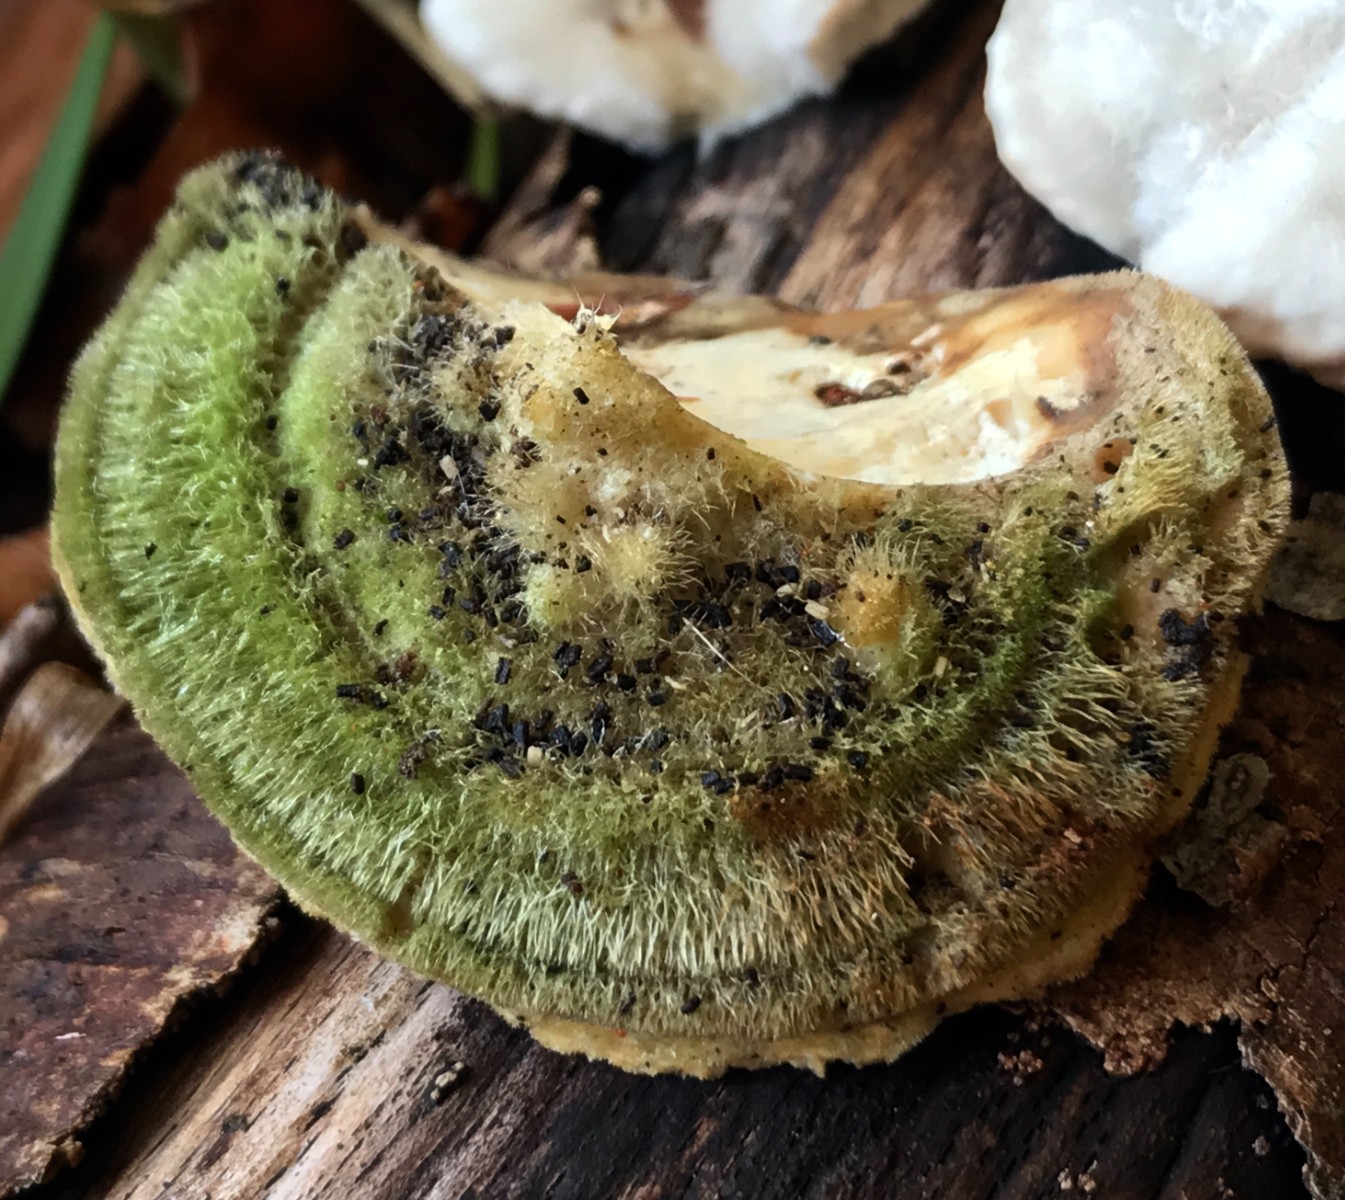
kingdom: Fungi
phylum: Basidiomycota
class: Agaricomycetes
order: Polyporales
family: Polyporaceae
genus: Trametes
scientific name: Trametes hirsuta
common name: håret læderporesvamp
